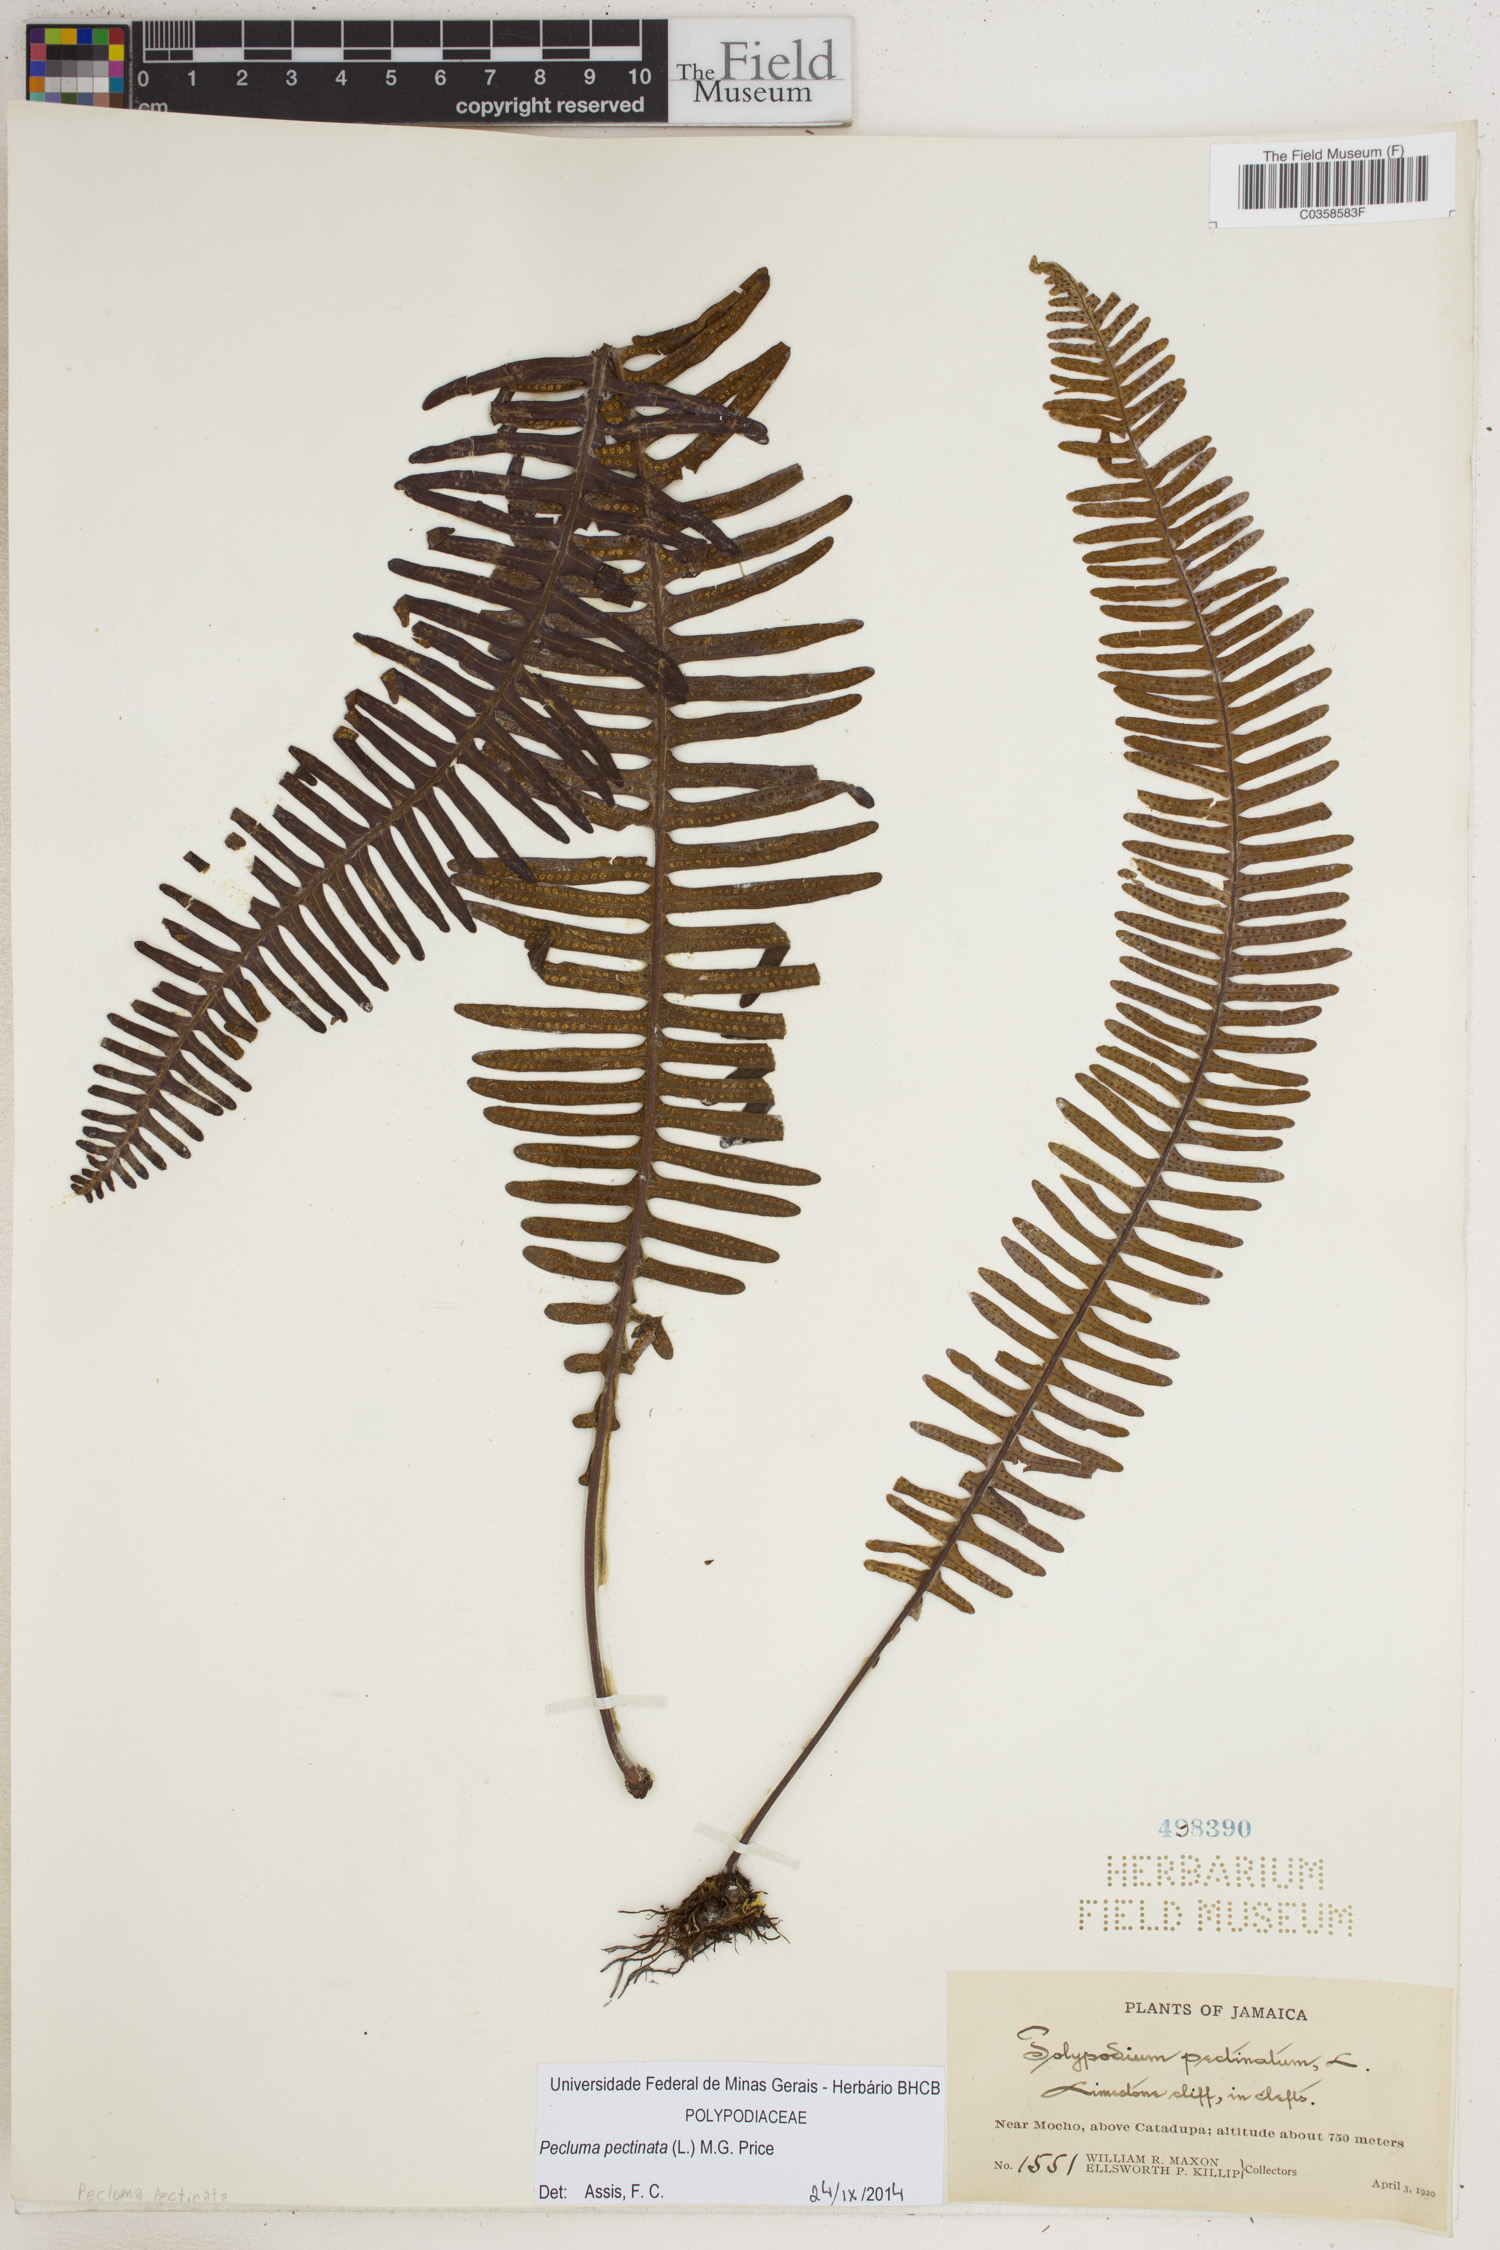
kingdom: Plantae
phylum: Tracheophyta
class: Polypodiopsida
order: Polypodiales
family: Polypodiaceae
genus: Pecluma
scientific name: Pecluma pectinata
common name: Msasa fern
